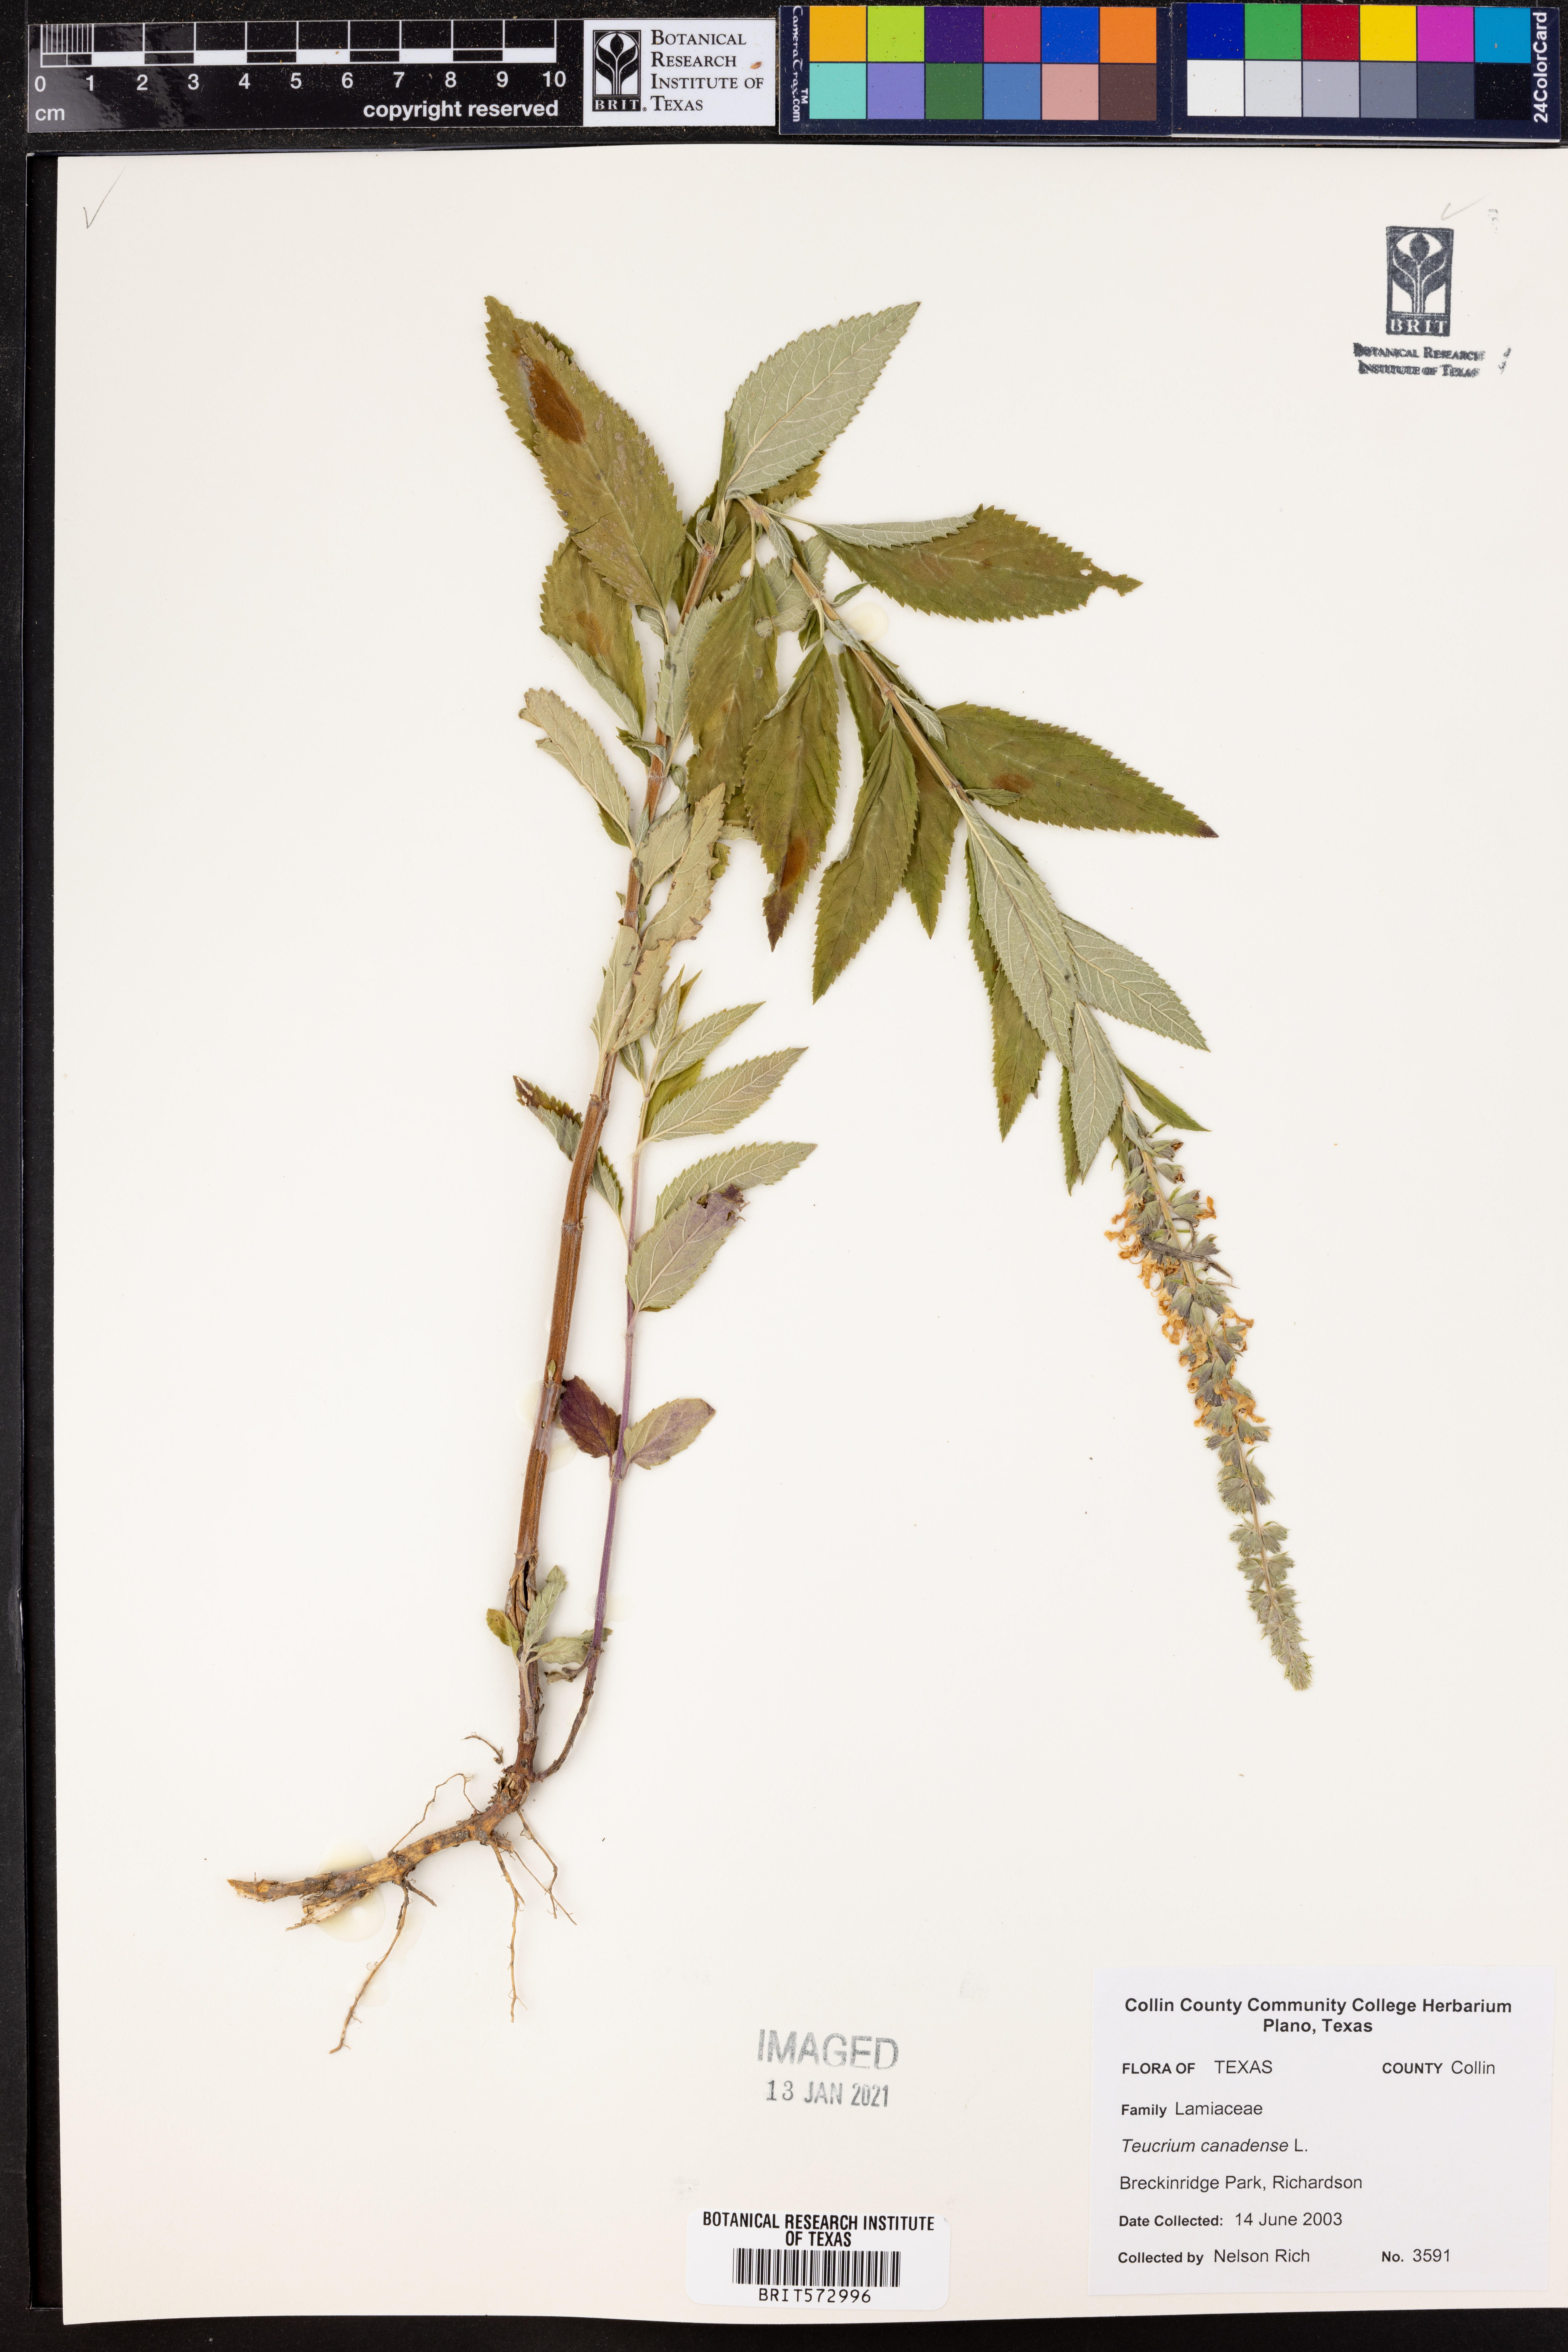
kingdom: Plantae
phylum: Tracheophyta
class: Magnoliopsida
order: Lamiales
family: Lamiaceae
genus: Teucrium
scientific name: Teucrium canadense
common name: American germander
